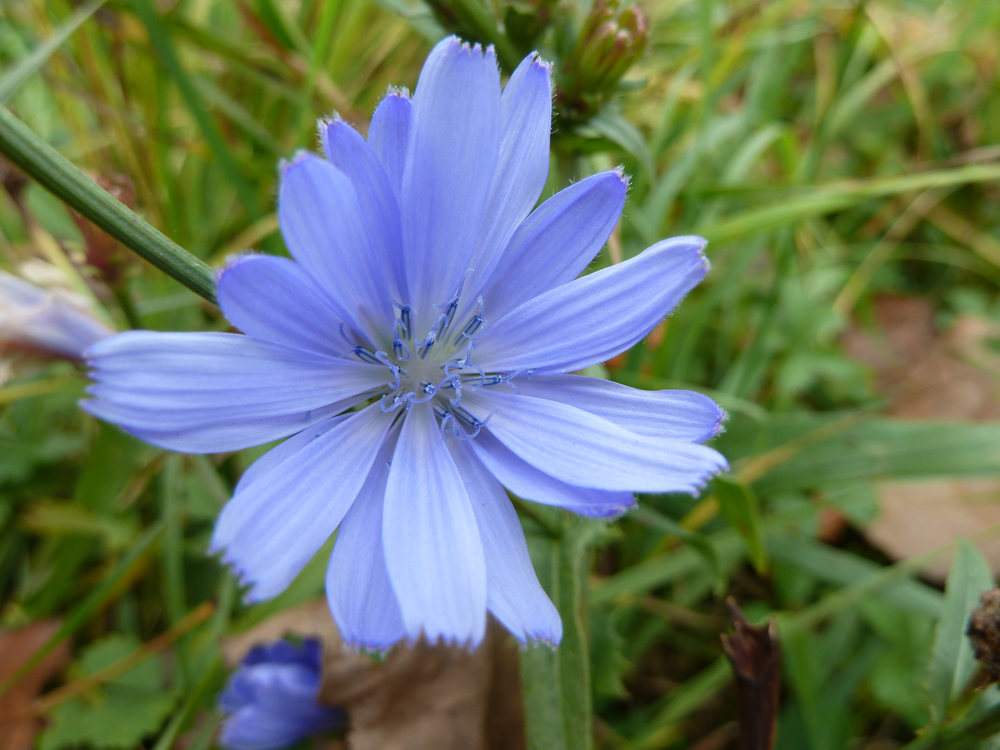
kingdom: Plantae
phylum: Tracheophyta
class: Magnoliopsida
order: Asterales
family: Asteraceae
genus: Cichorium
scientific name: Cichorium intybus
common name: Chicory
